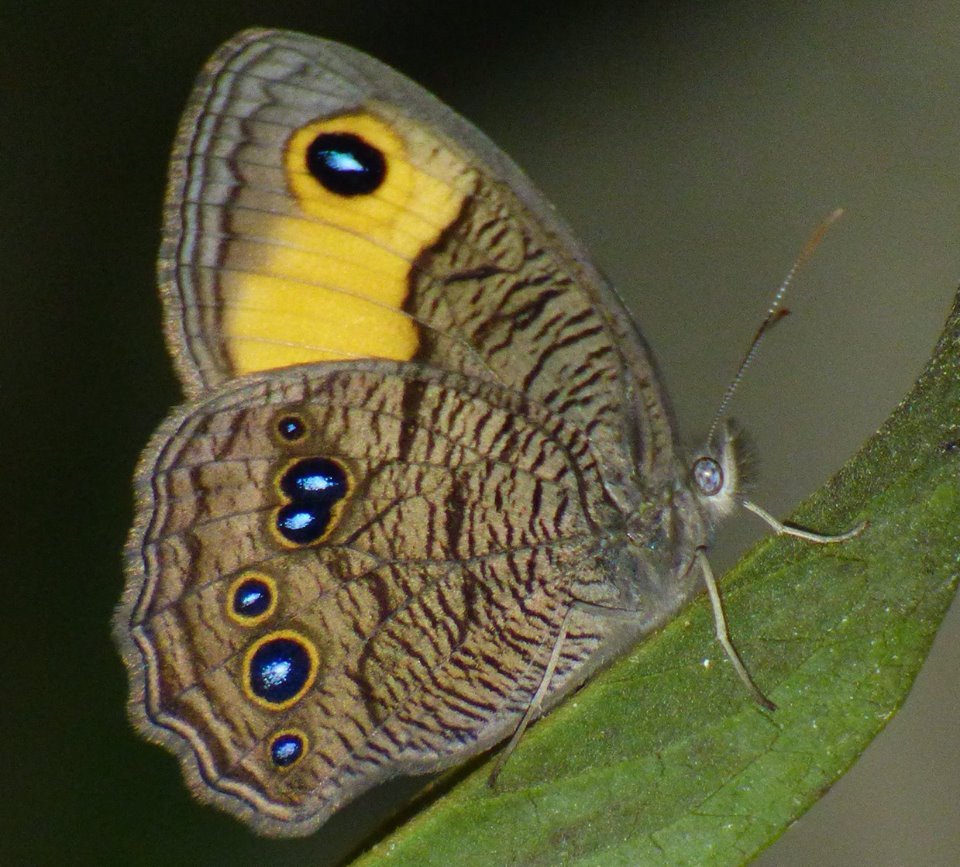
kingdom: Animalia
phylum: Arthropoda
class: Insecta
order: Lepidoptera
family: Nymphalidae
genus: Cercyonis
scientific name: Cercyonis pegala
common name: Common Wood-Nymph
